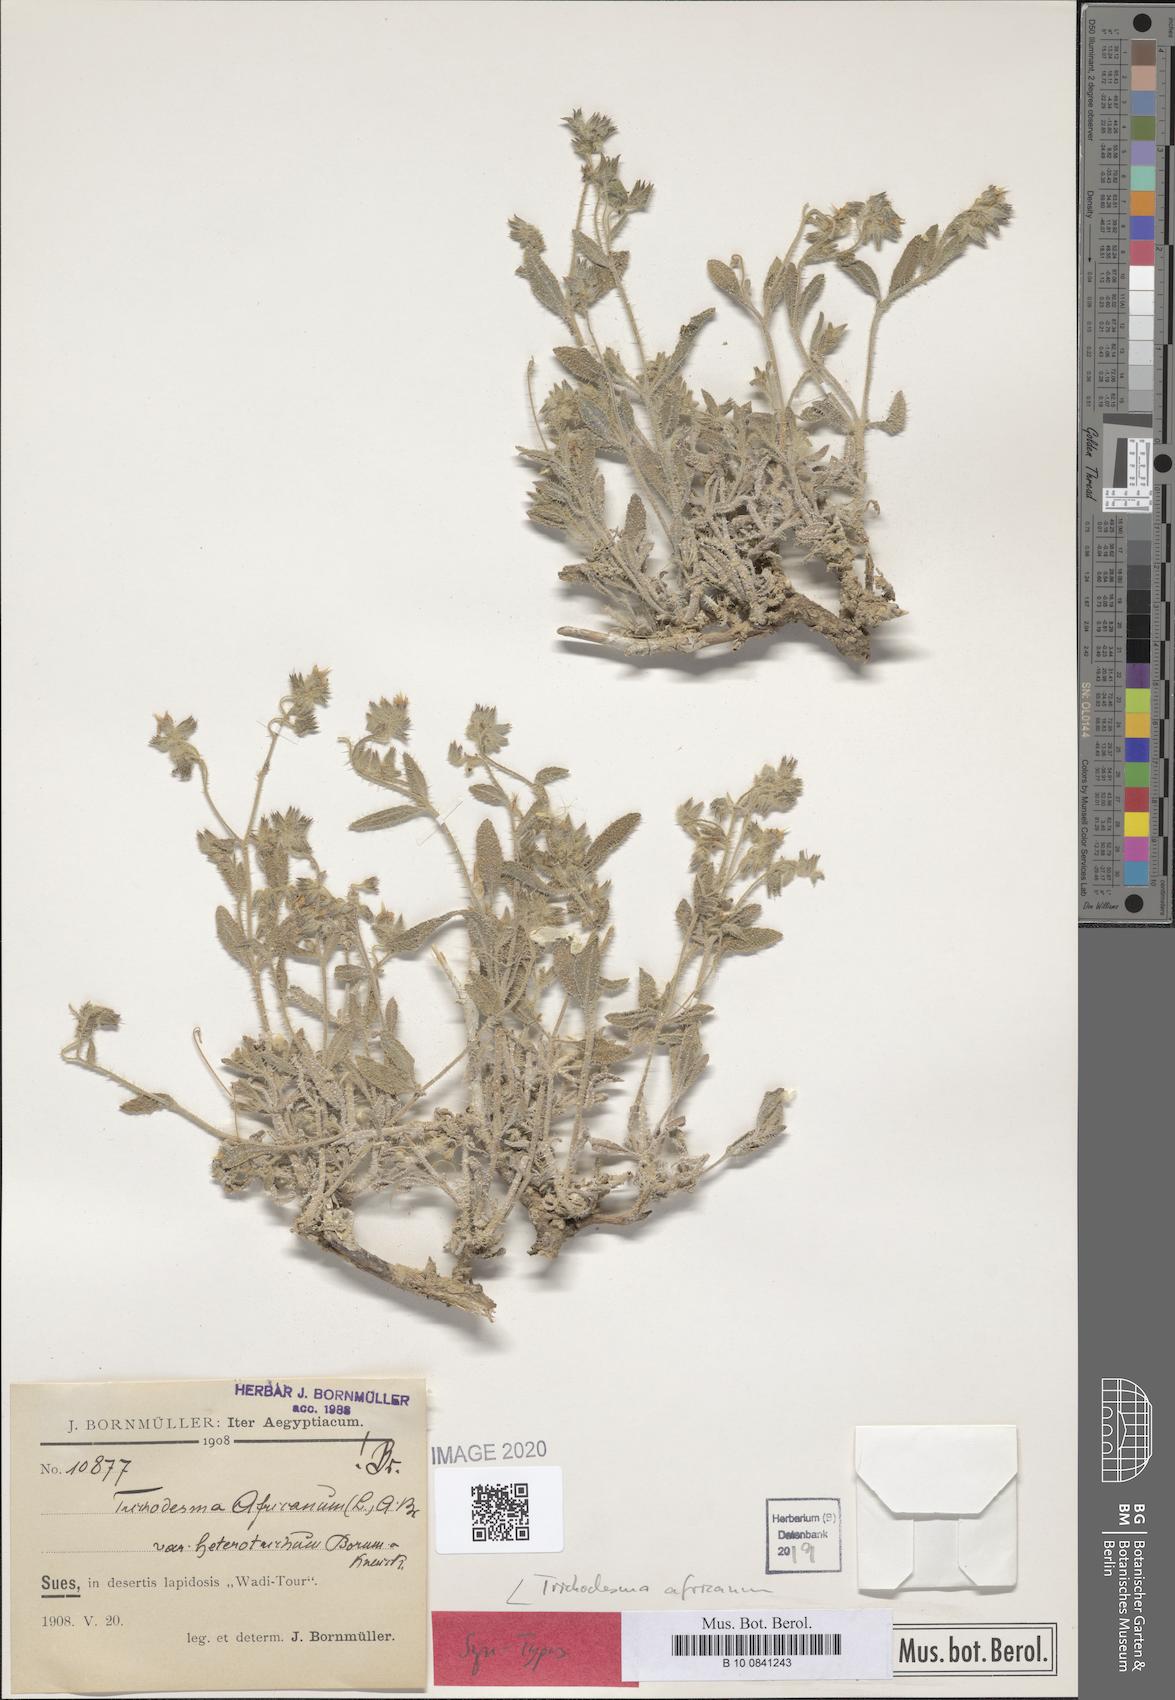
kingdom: Plantae
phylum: Tracheophyta
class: Magnoliopsida
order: Boraginales
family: Boraginaceae
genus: Trichodesma
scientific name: Trichodesma africanum
